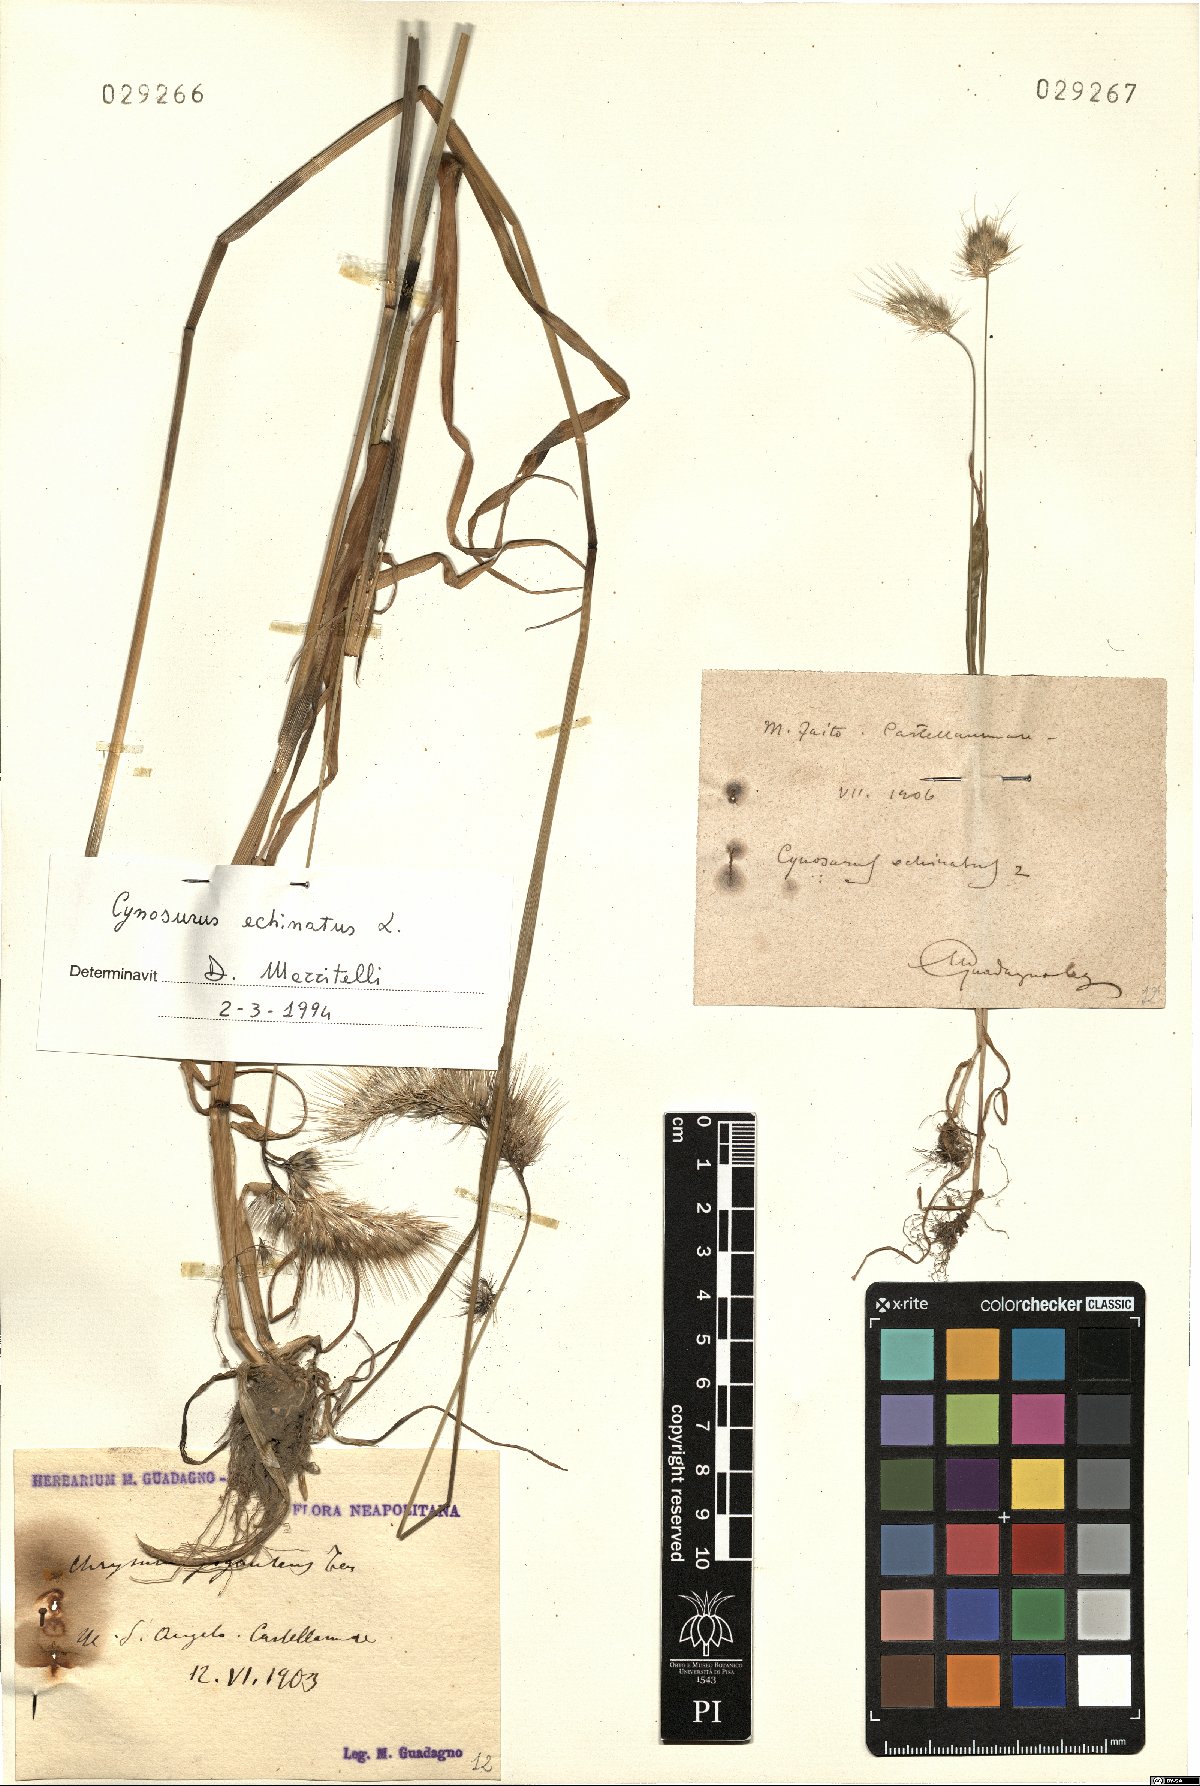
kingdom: Plantae
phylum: Tracheophyta
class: Liliopsida
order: Poales
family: Poaceae
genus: Cynosurus
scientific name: Cynosurus echinatus
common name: Rough dog's-tail
